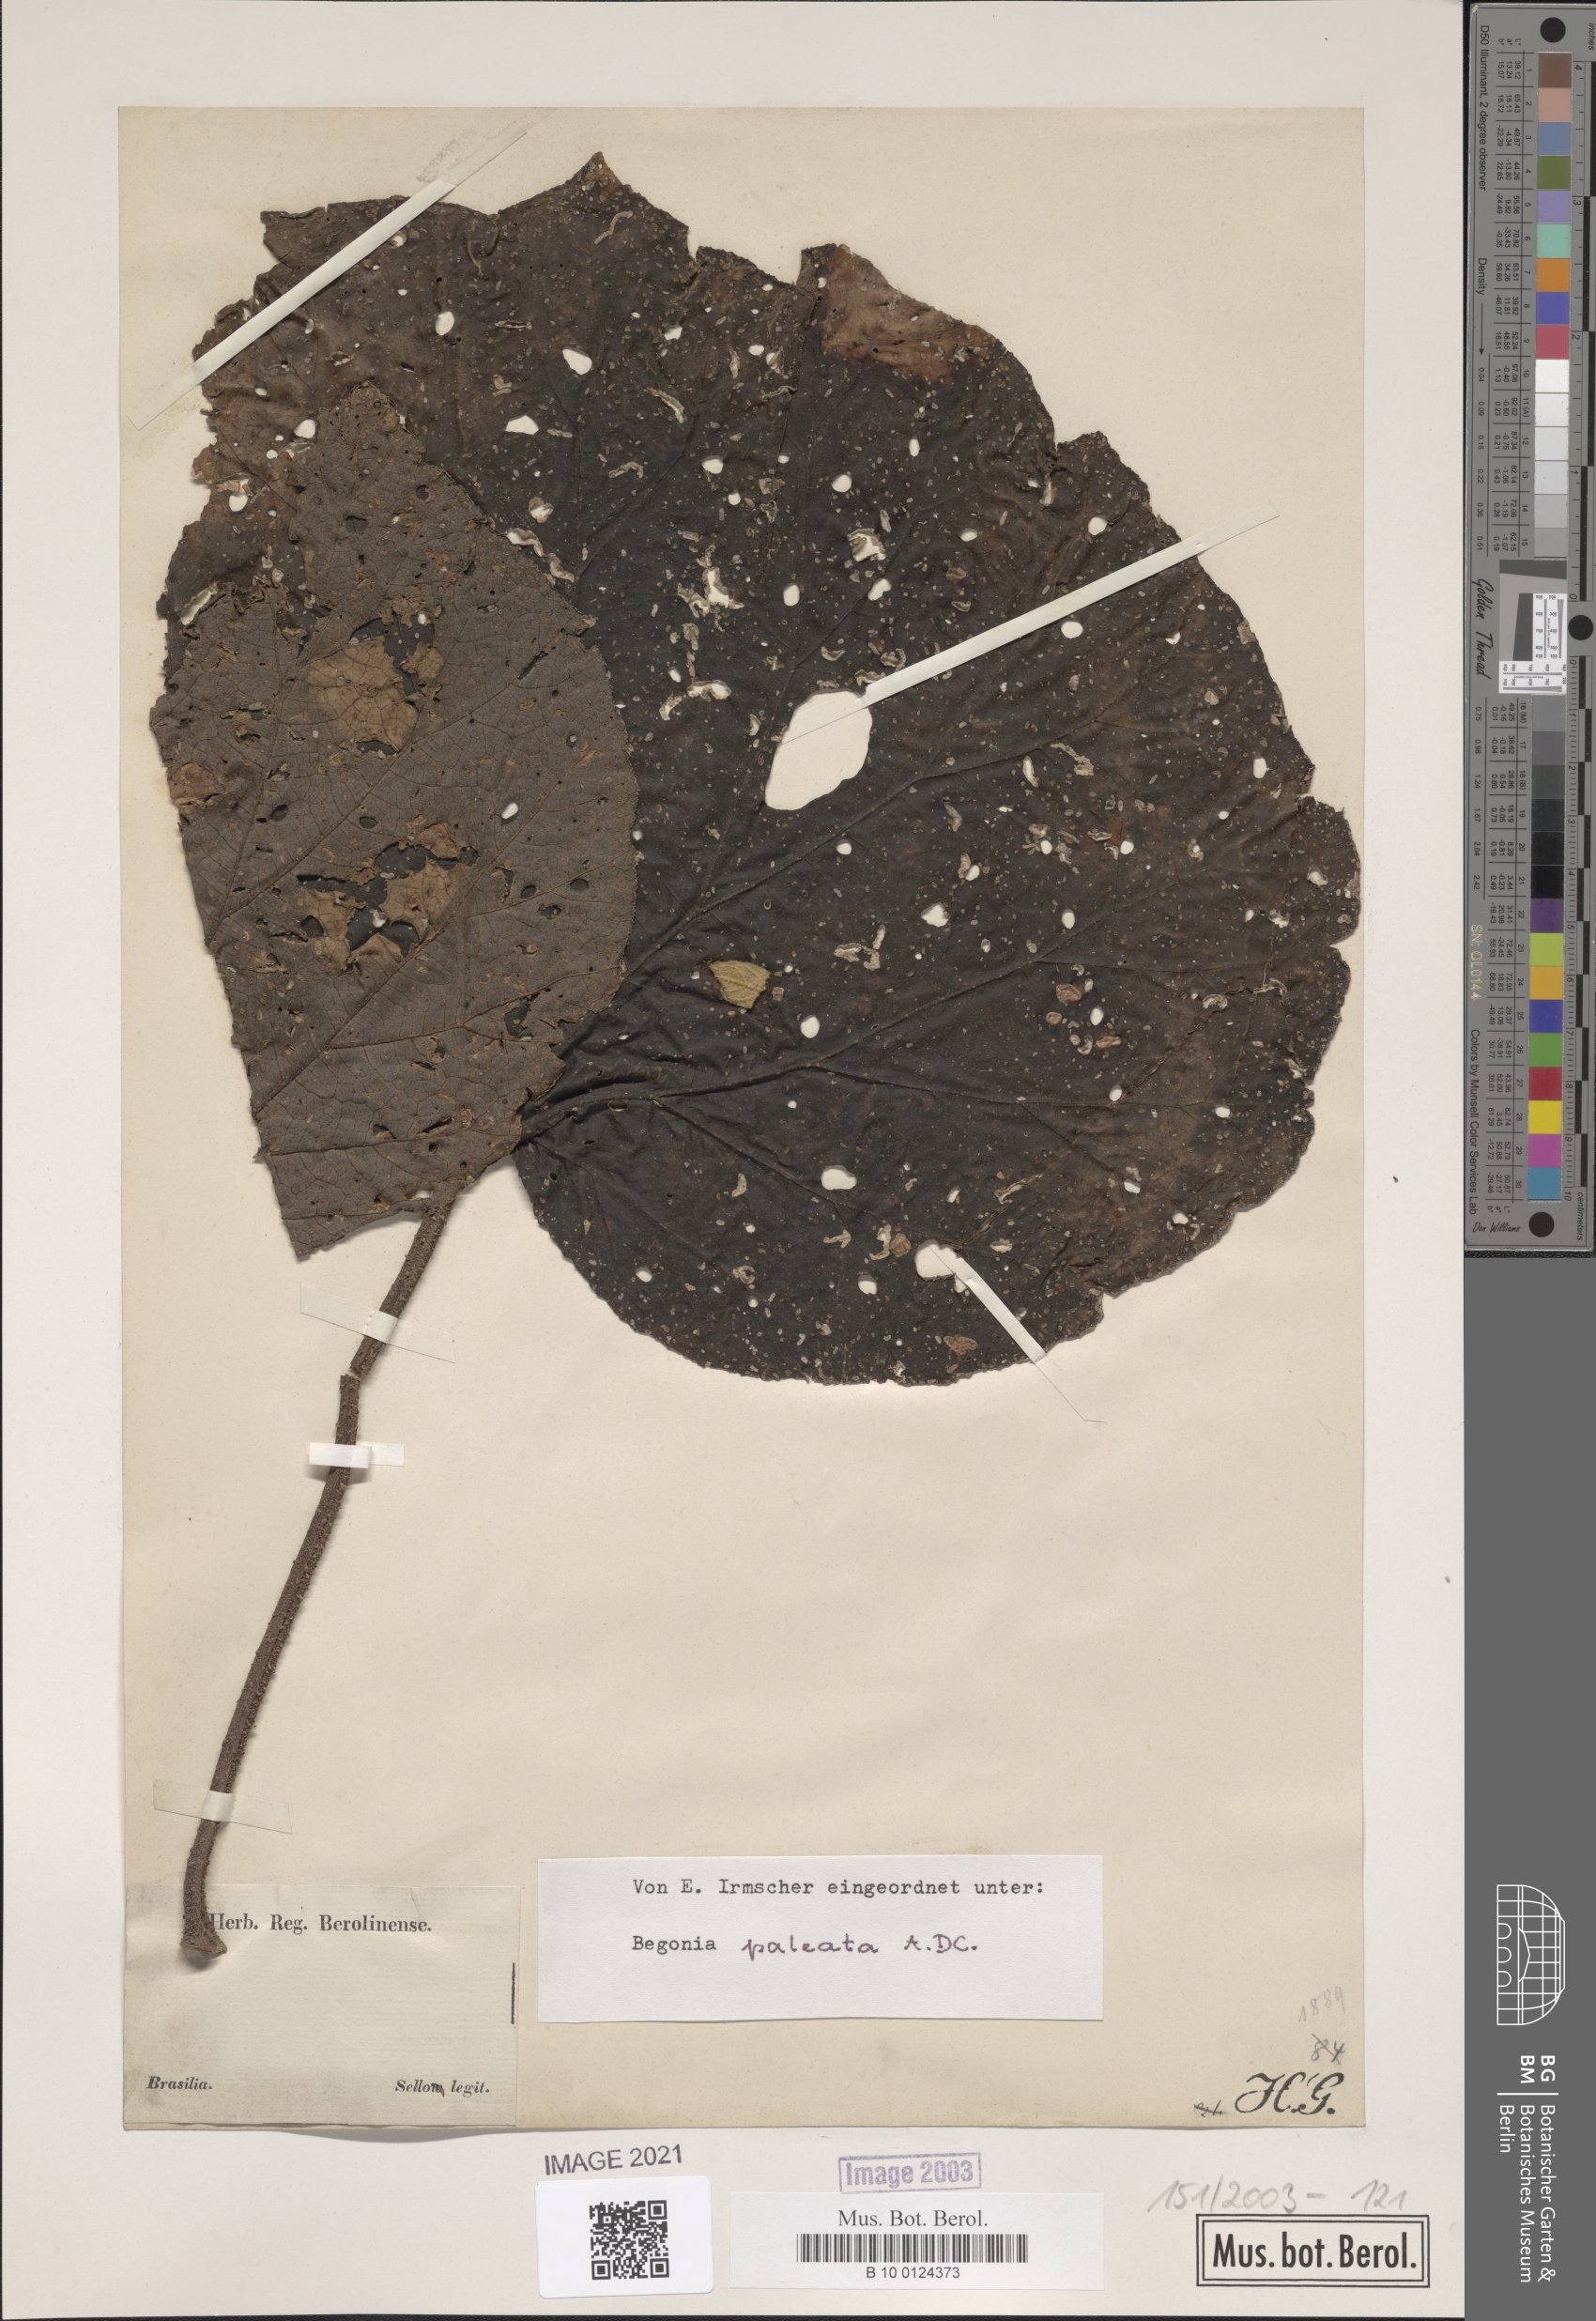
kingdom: Plantae
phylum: Tracheophyta
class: Magnoliopsida
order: Cucurbitales
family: Begoniaceae
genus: Begonia
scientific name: Begonia paleata
